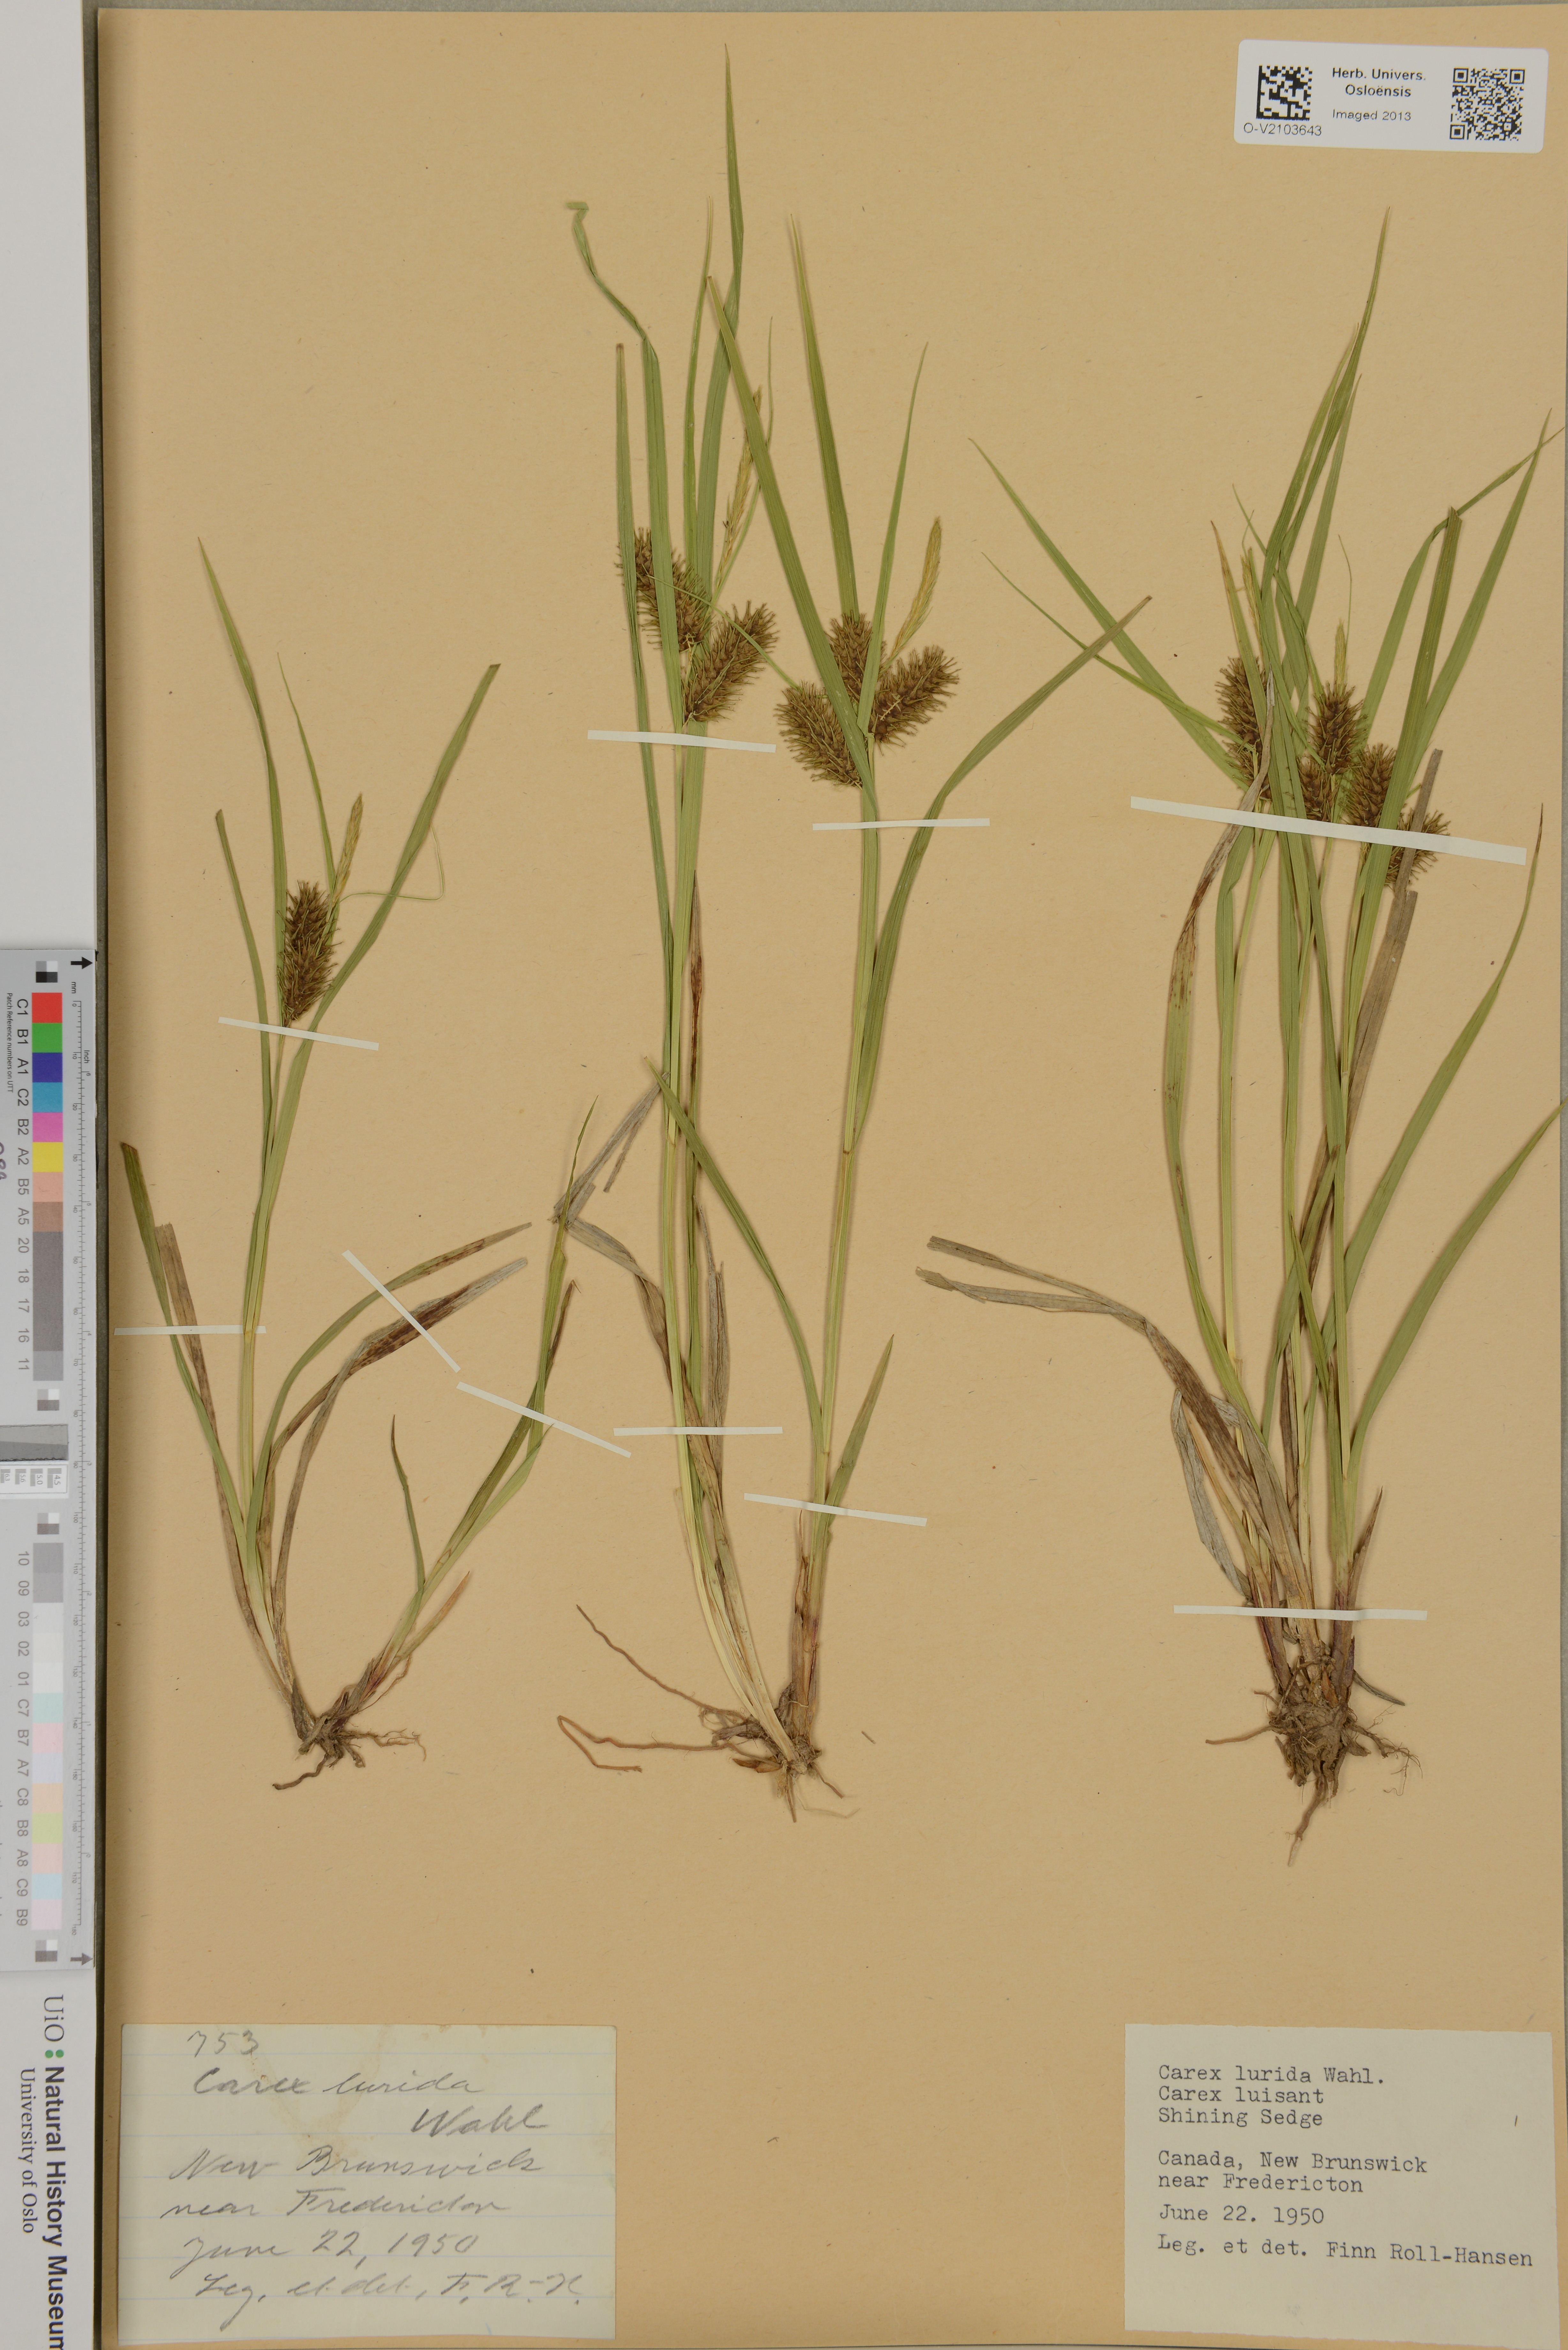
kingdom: Plantae
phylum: Tracheophyta
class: Liliopsida
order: Poales
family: Cyperaceae
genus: Carex
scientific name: Carex lurida
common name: Sallow sedge
